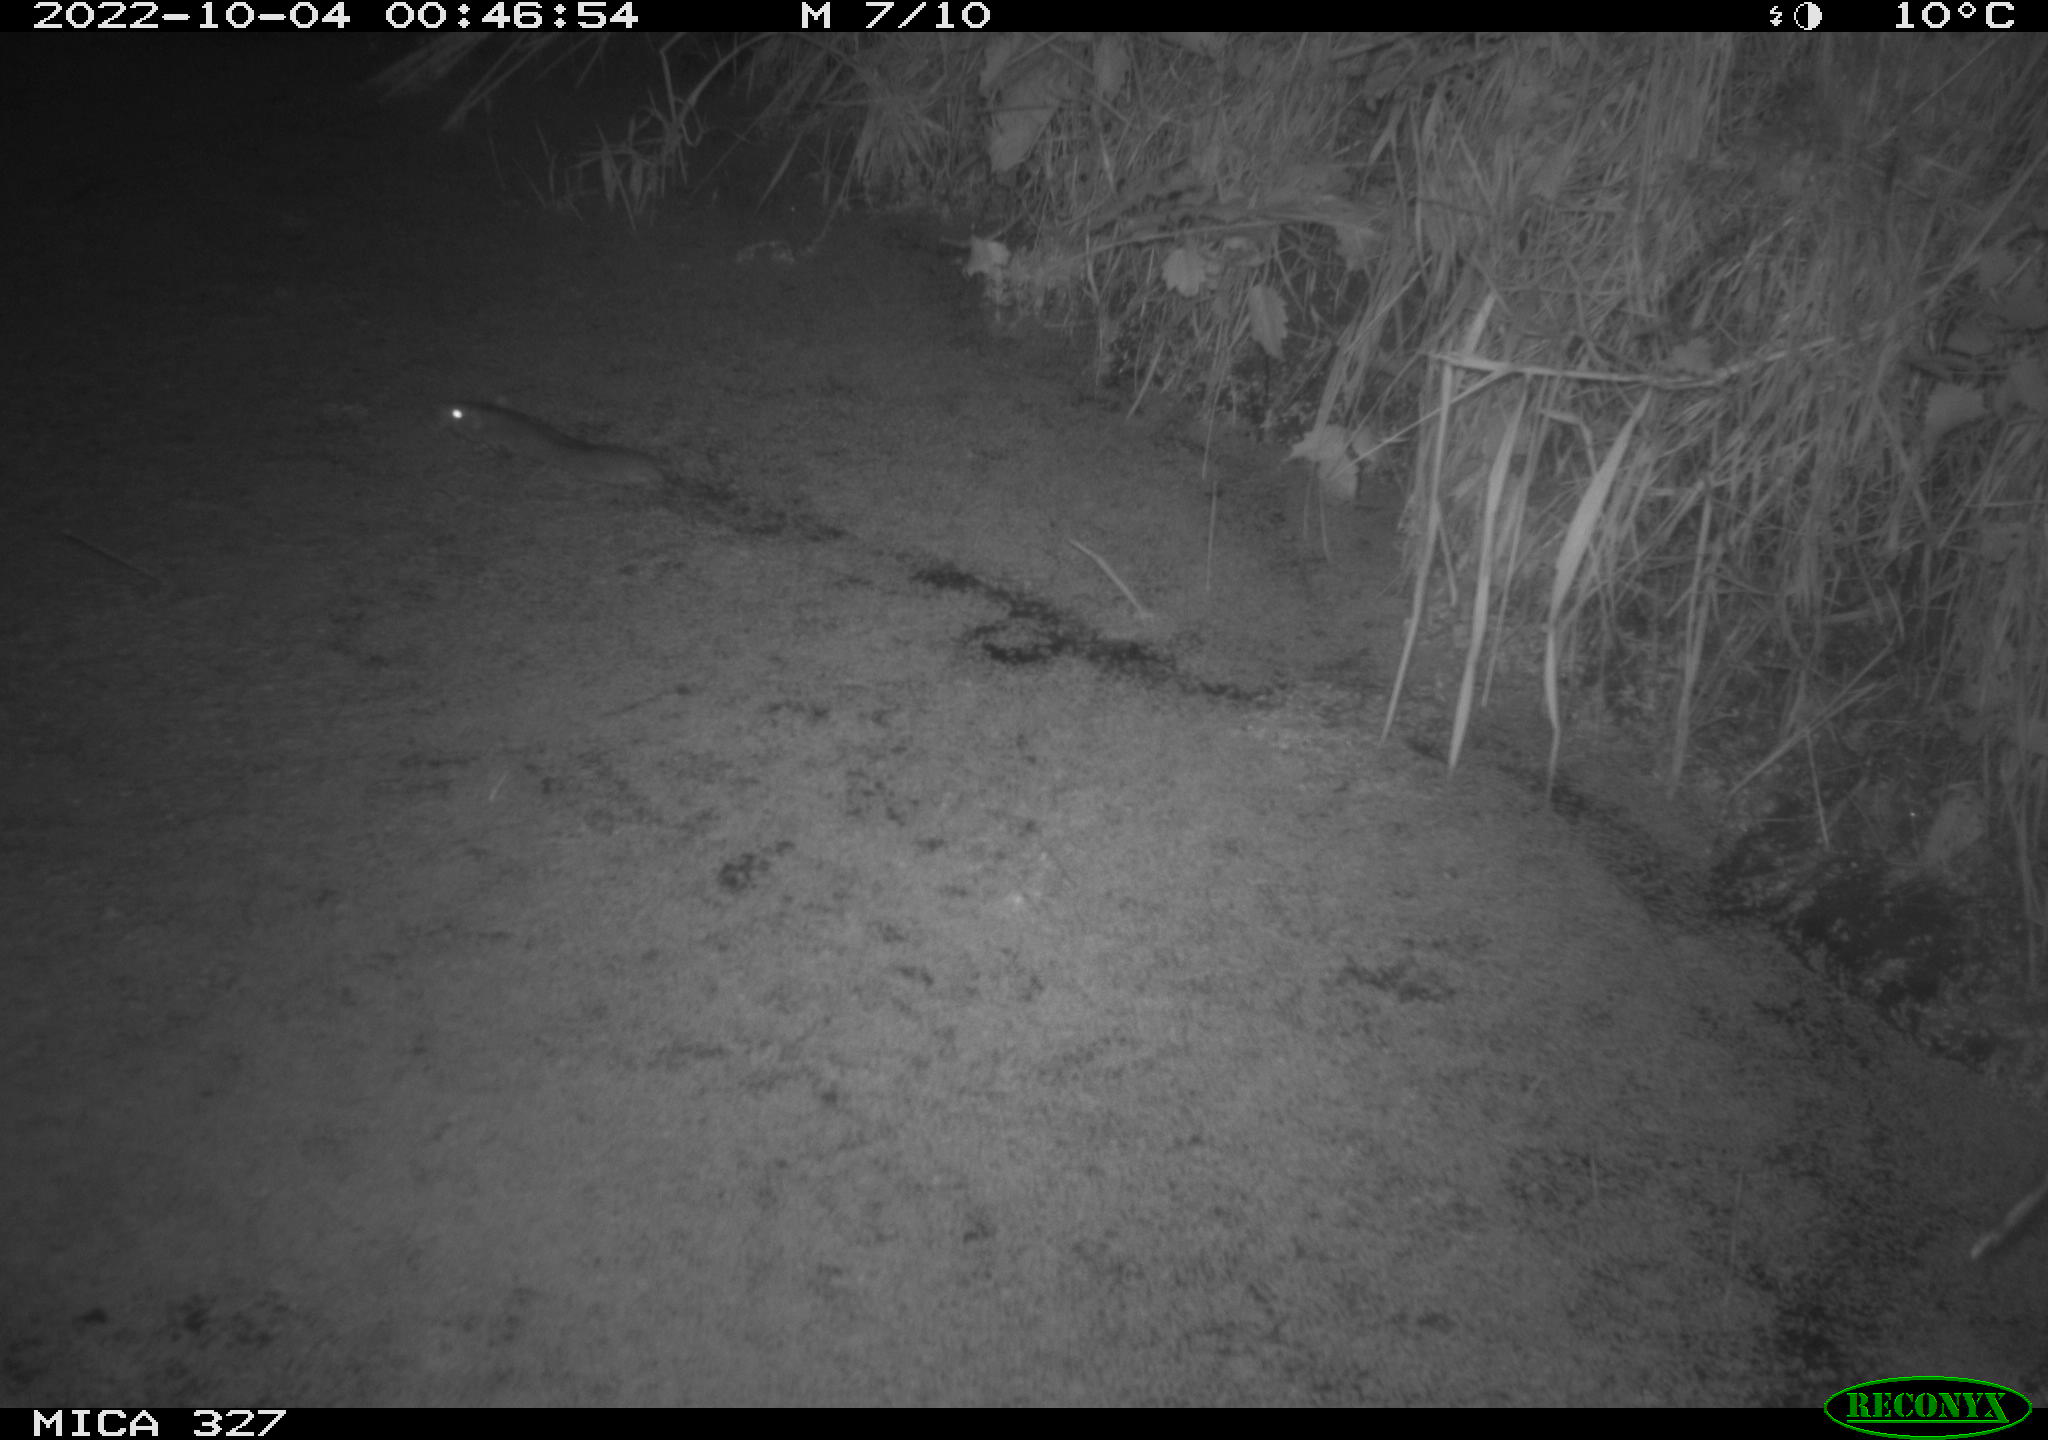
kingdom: Animalia
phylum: Chordata
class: Mammalia
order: Rodentia
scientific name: Rodentia
